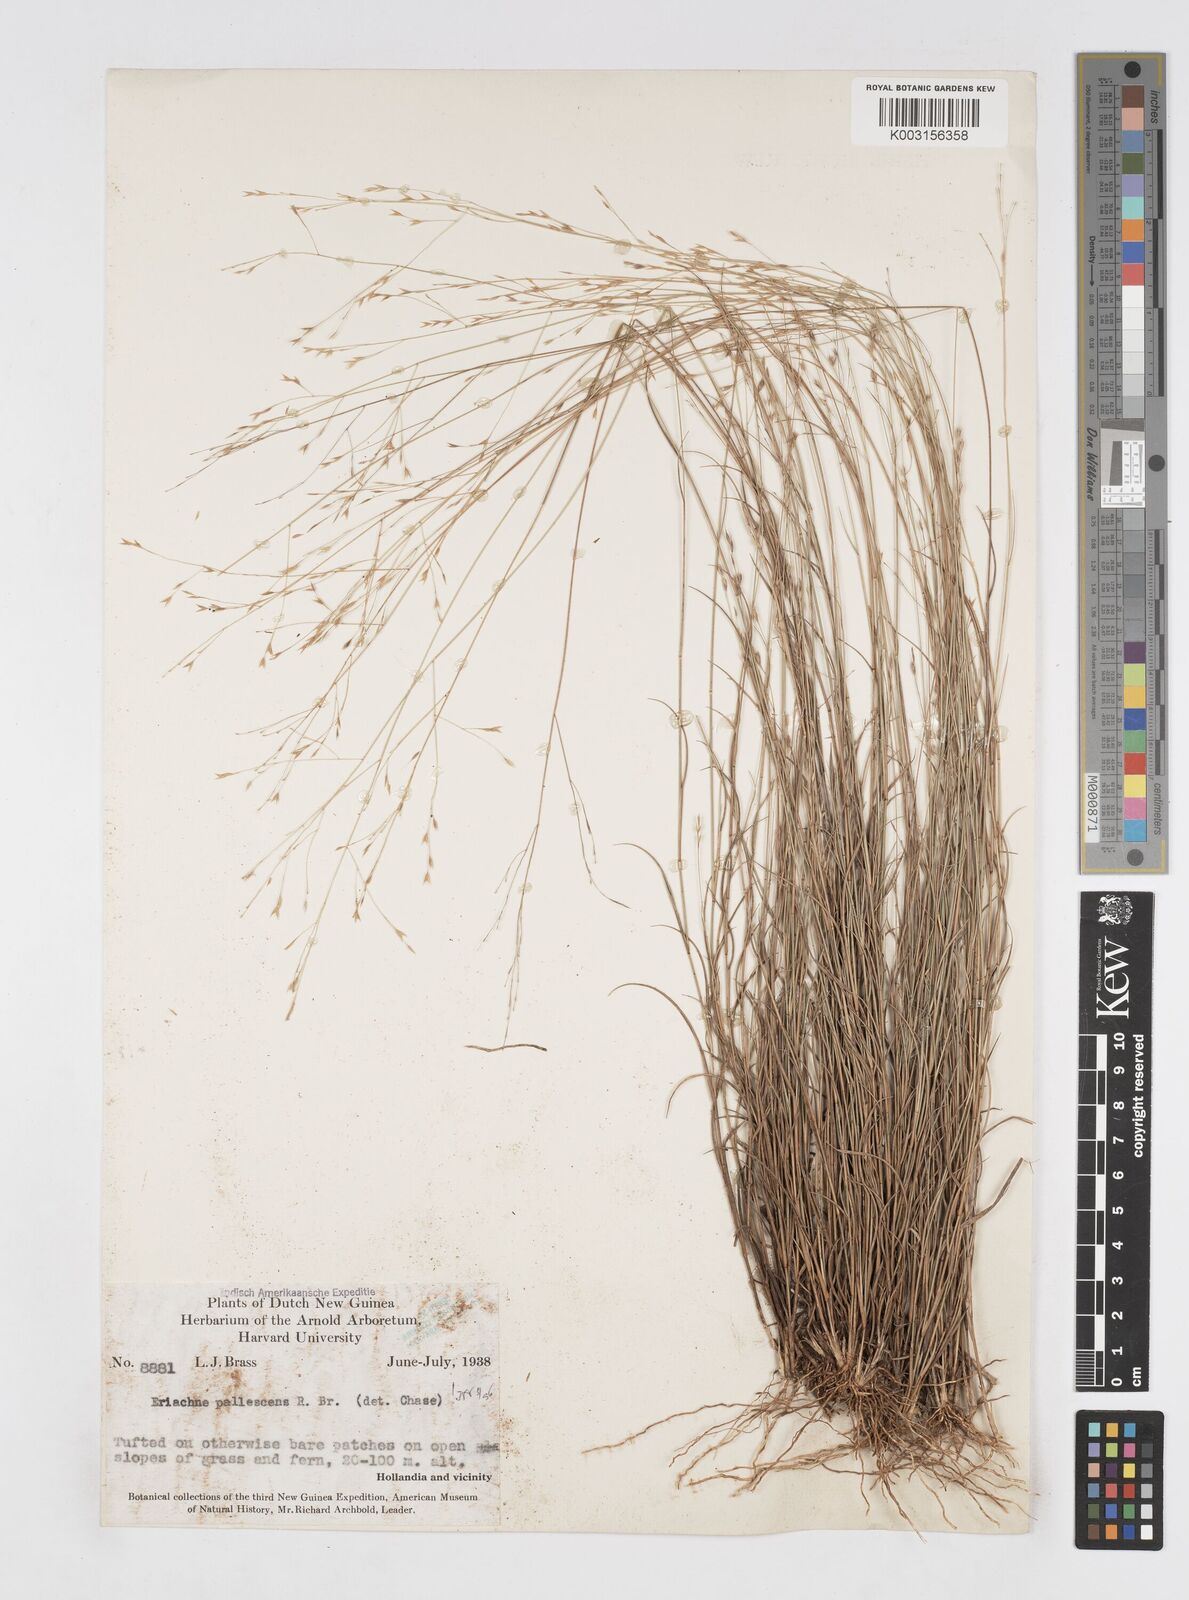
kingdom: Plantae
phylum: Tracheophyta
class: Liliopsida
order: Poales
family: Poaceae
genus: Eriachne
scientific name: Eriachne pallescens
